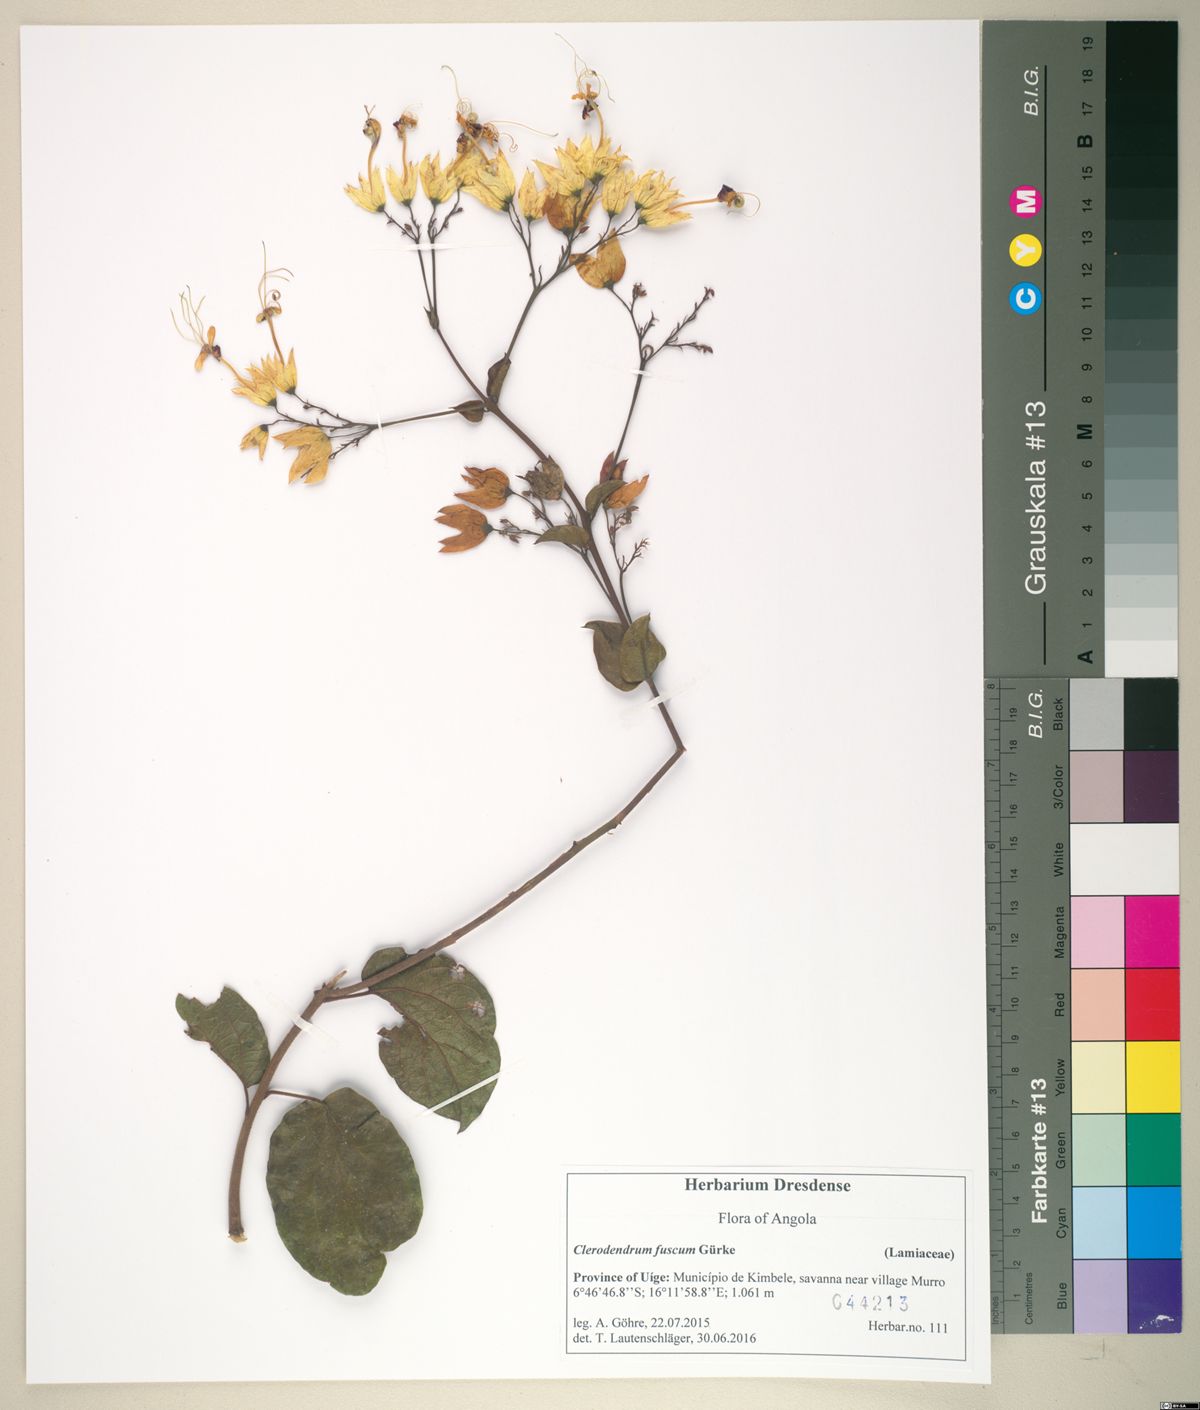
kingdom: Plantae
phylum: Tracheophyta
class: Magnoliopsida
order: Lamiales
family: Lamiaceae
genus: Clerodendrum
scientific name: Clerodendrum fuscum
